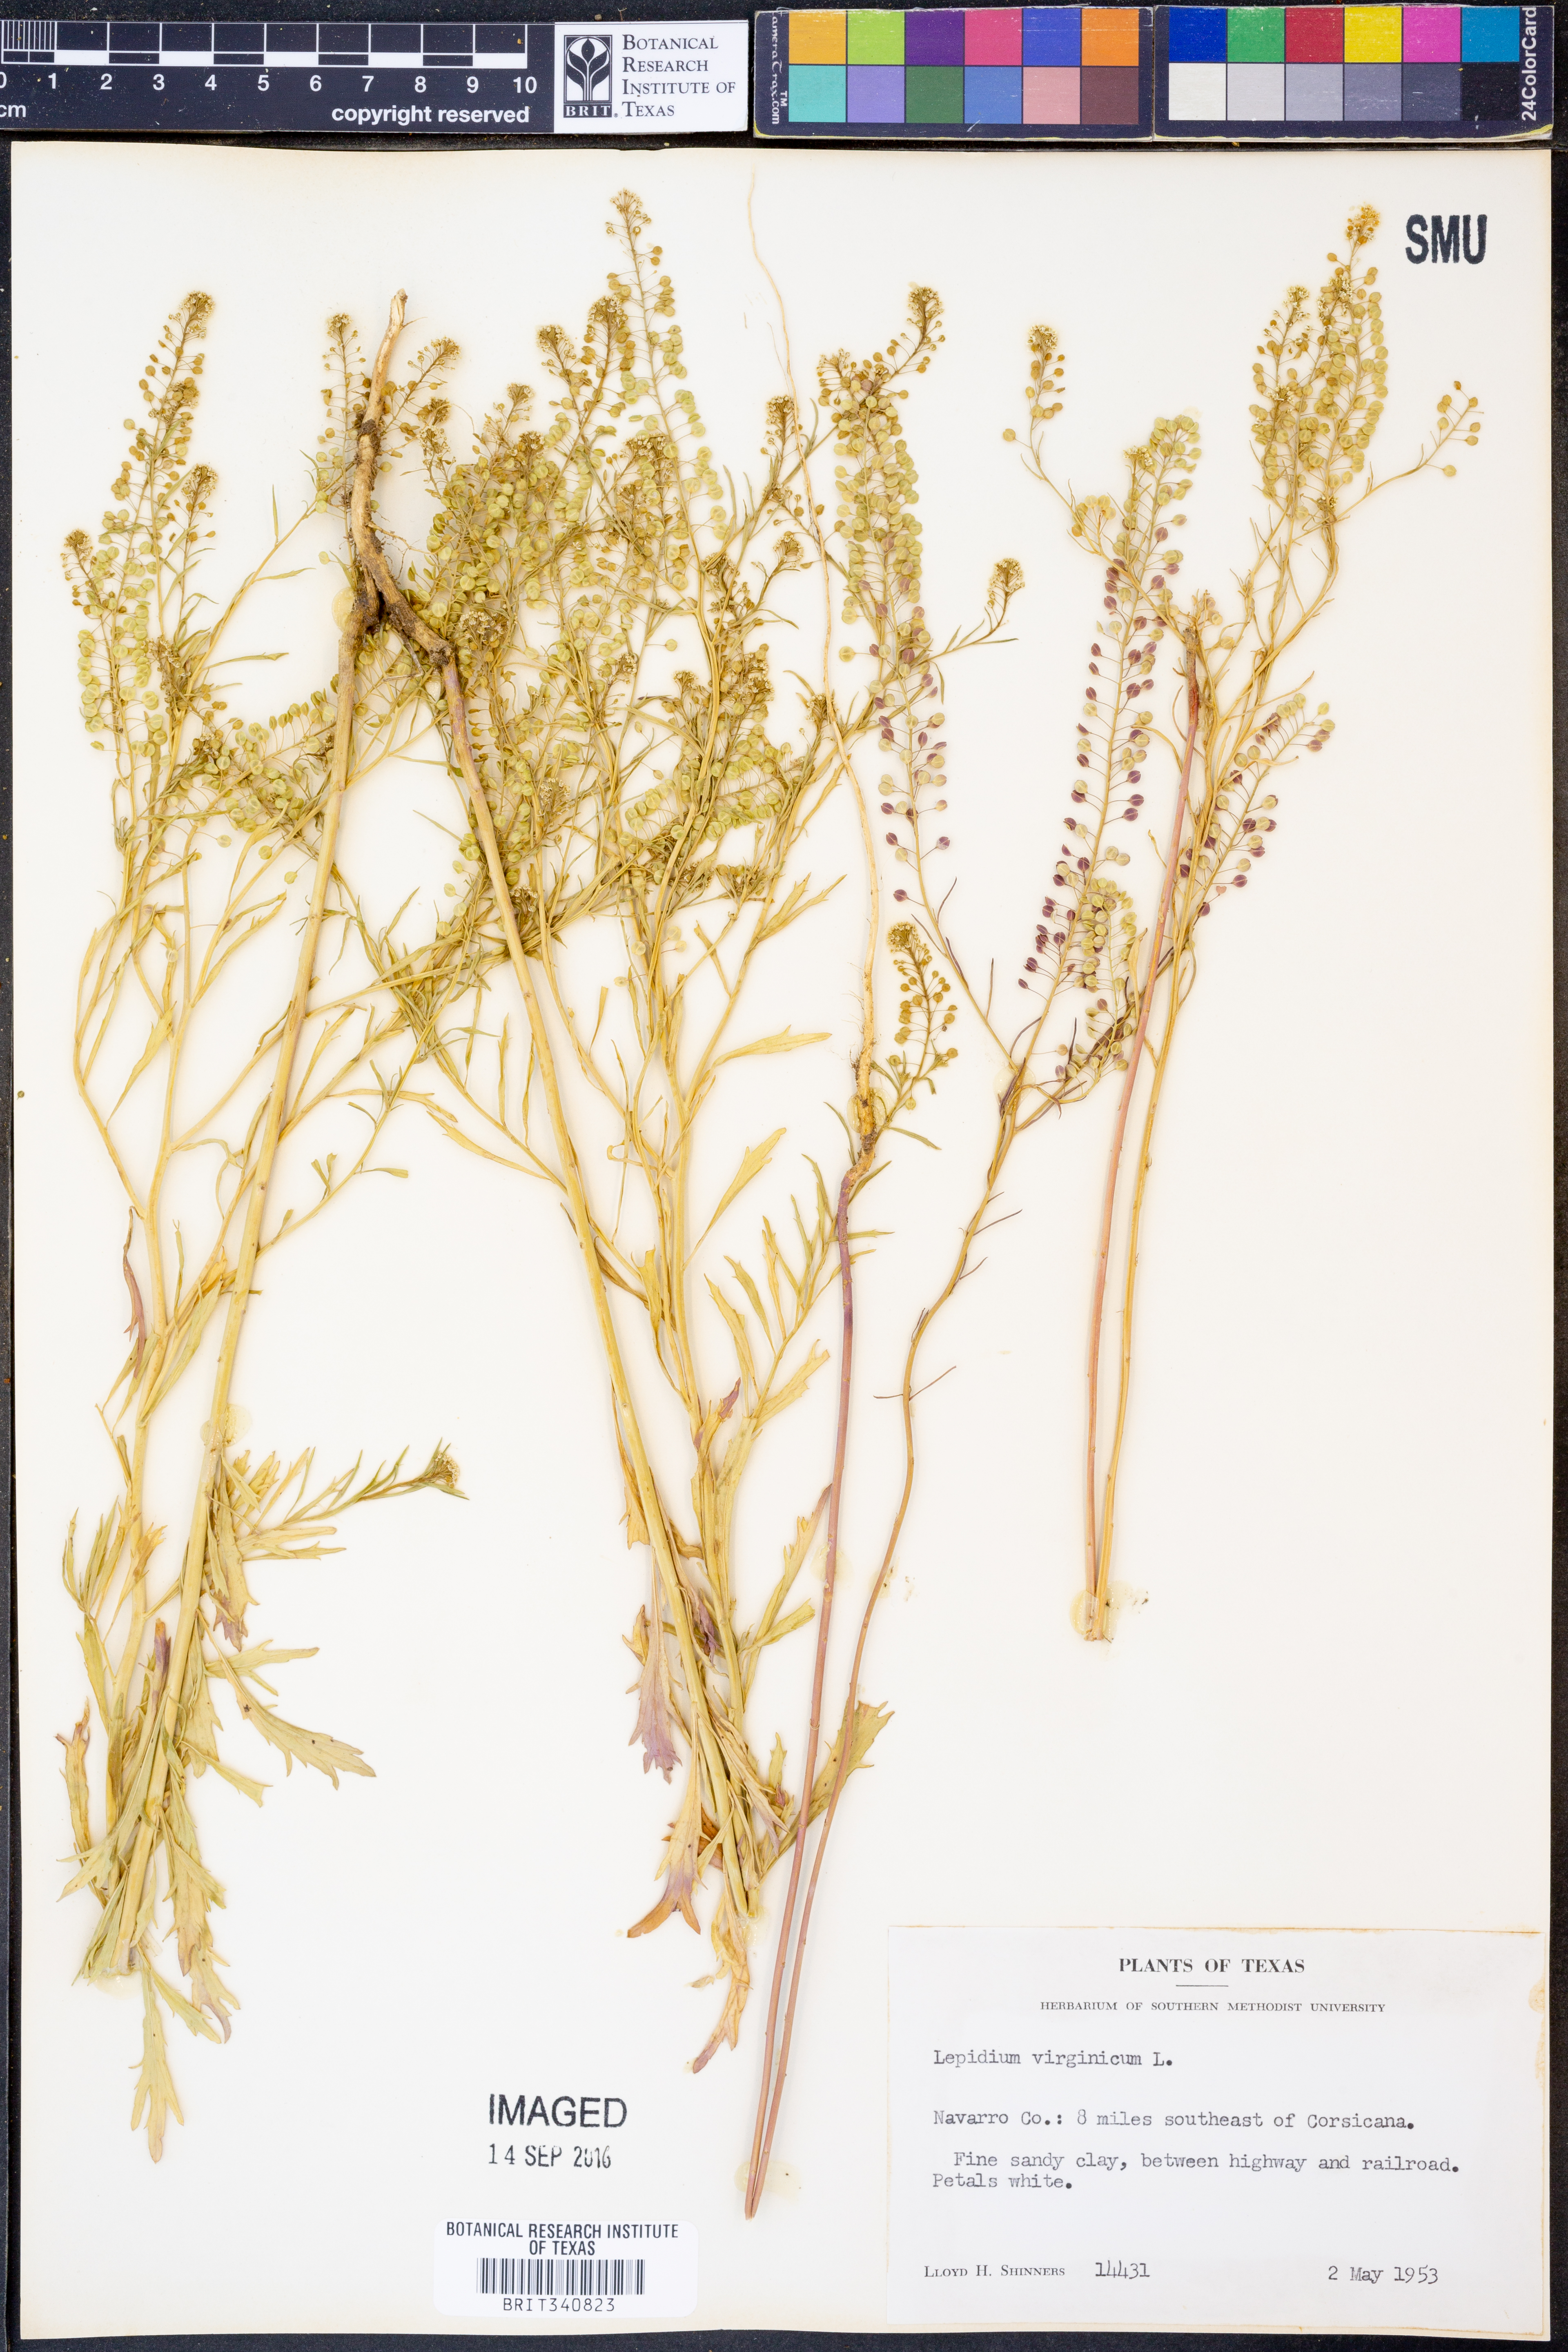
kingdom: Plantae
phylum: Tracheophyta
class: Magnoliopsida
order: Brassicales
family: Brassicaceae
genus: Lepidium
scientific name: Lepidium virginicum
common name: Least pepperwort
